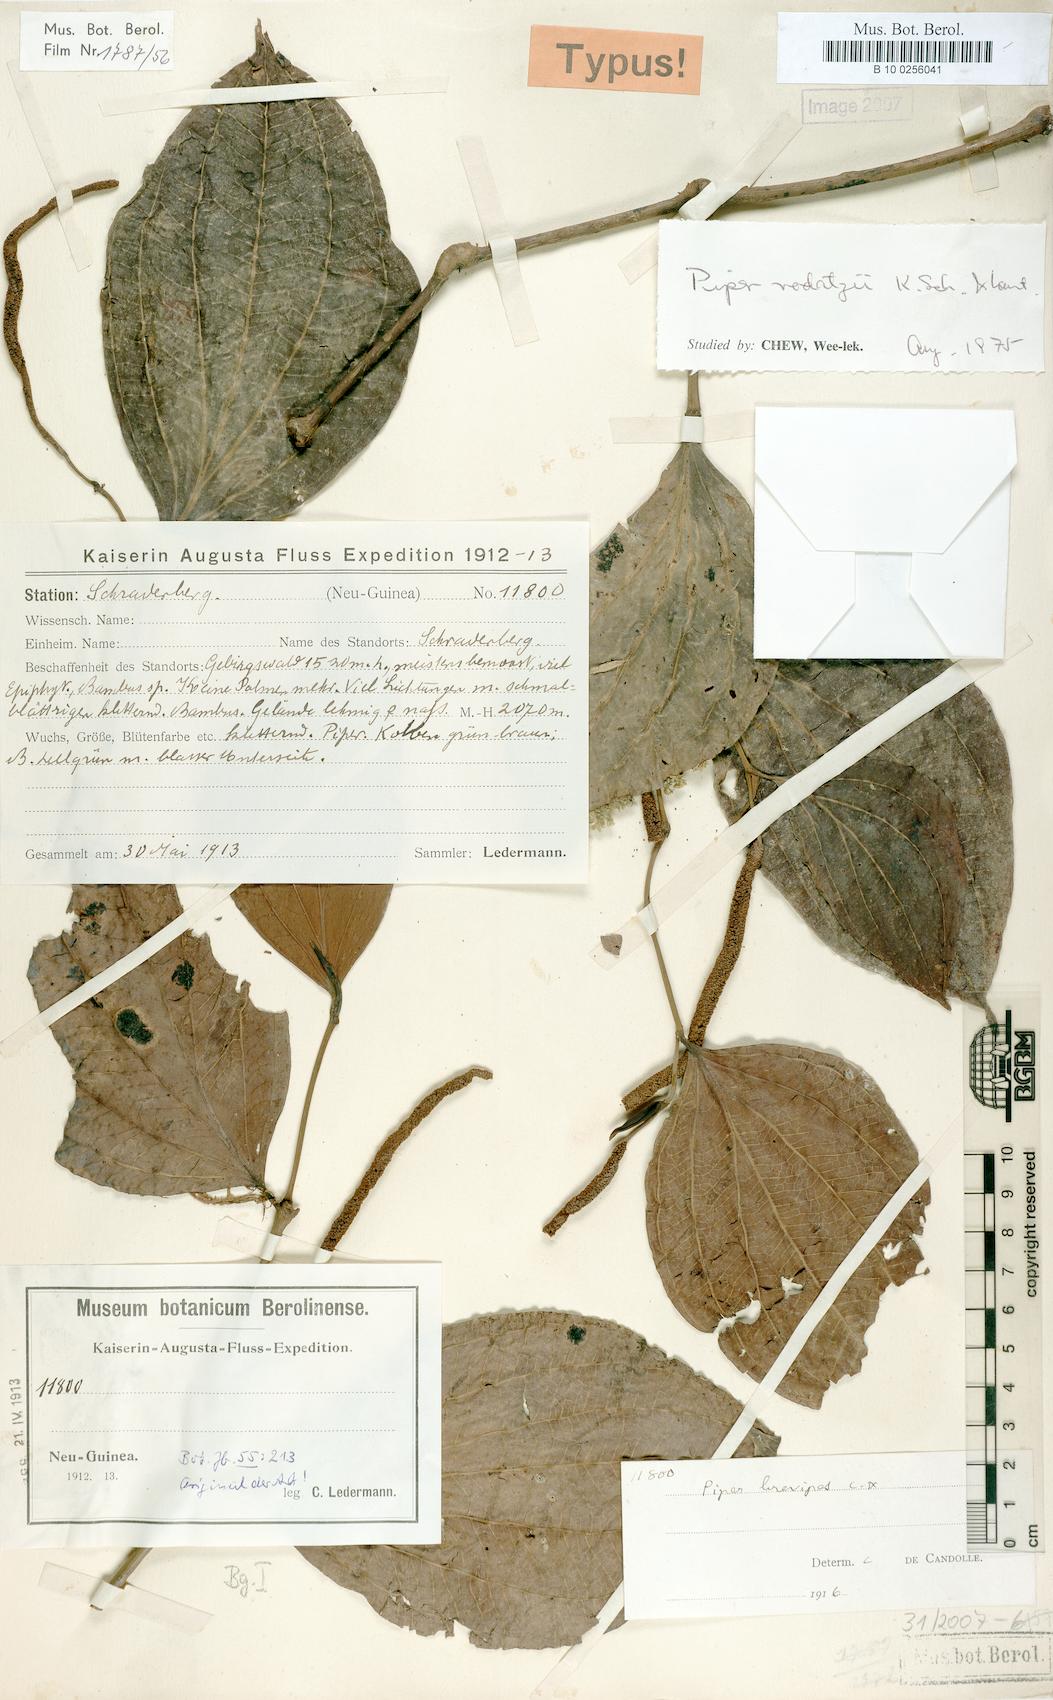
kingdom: Plantae
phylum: Tracheophyta
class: Magnoliopsida
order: Piperales
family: Piperaceae
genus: Piper
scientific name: Piper macropiper
